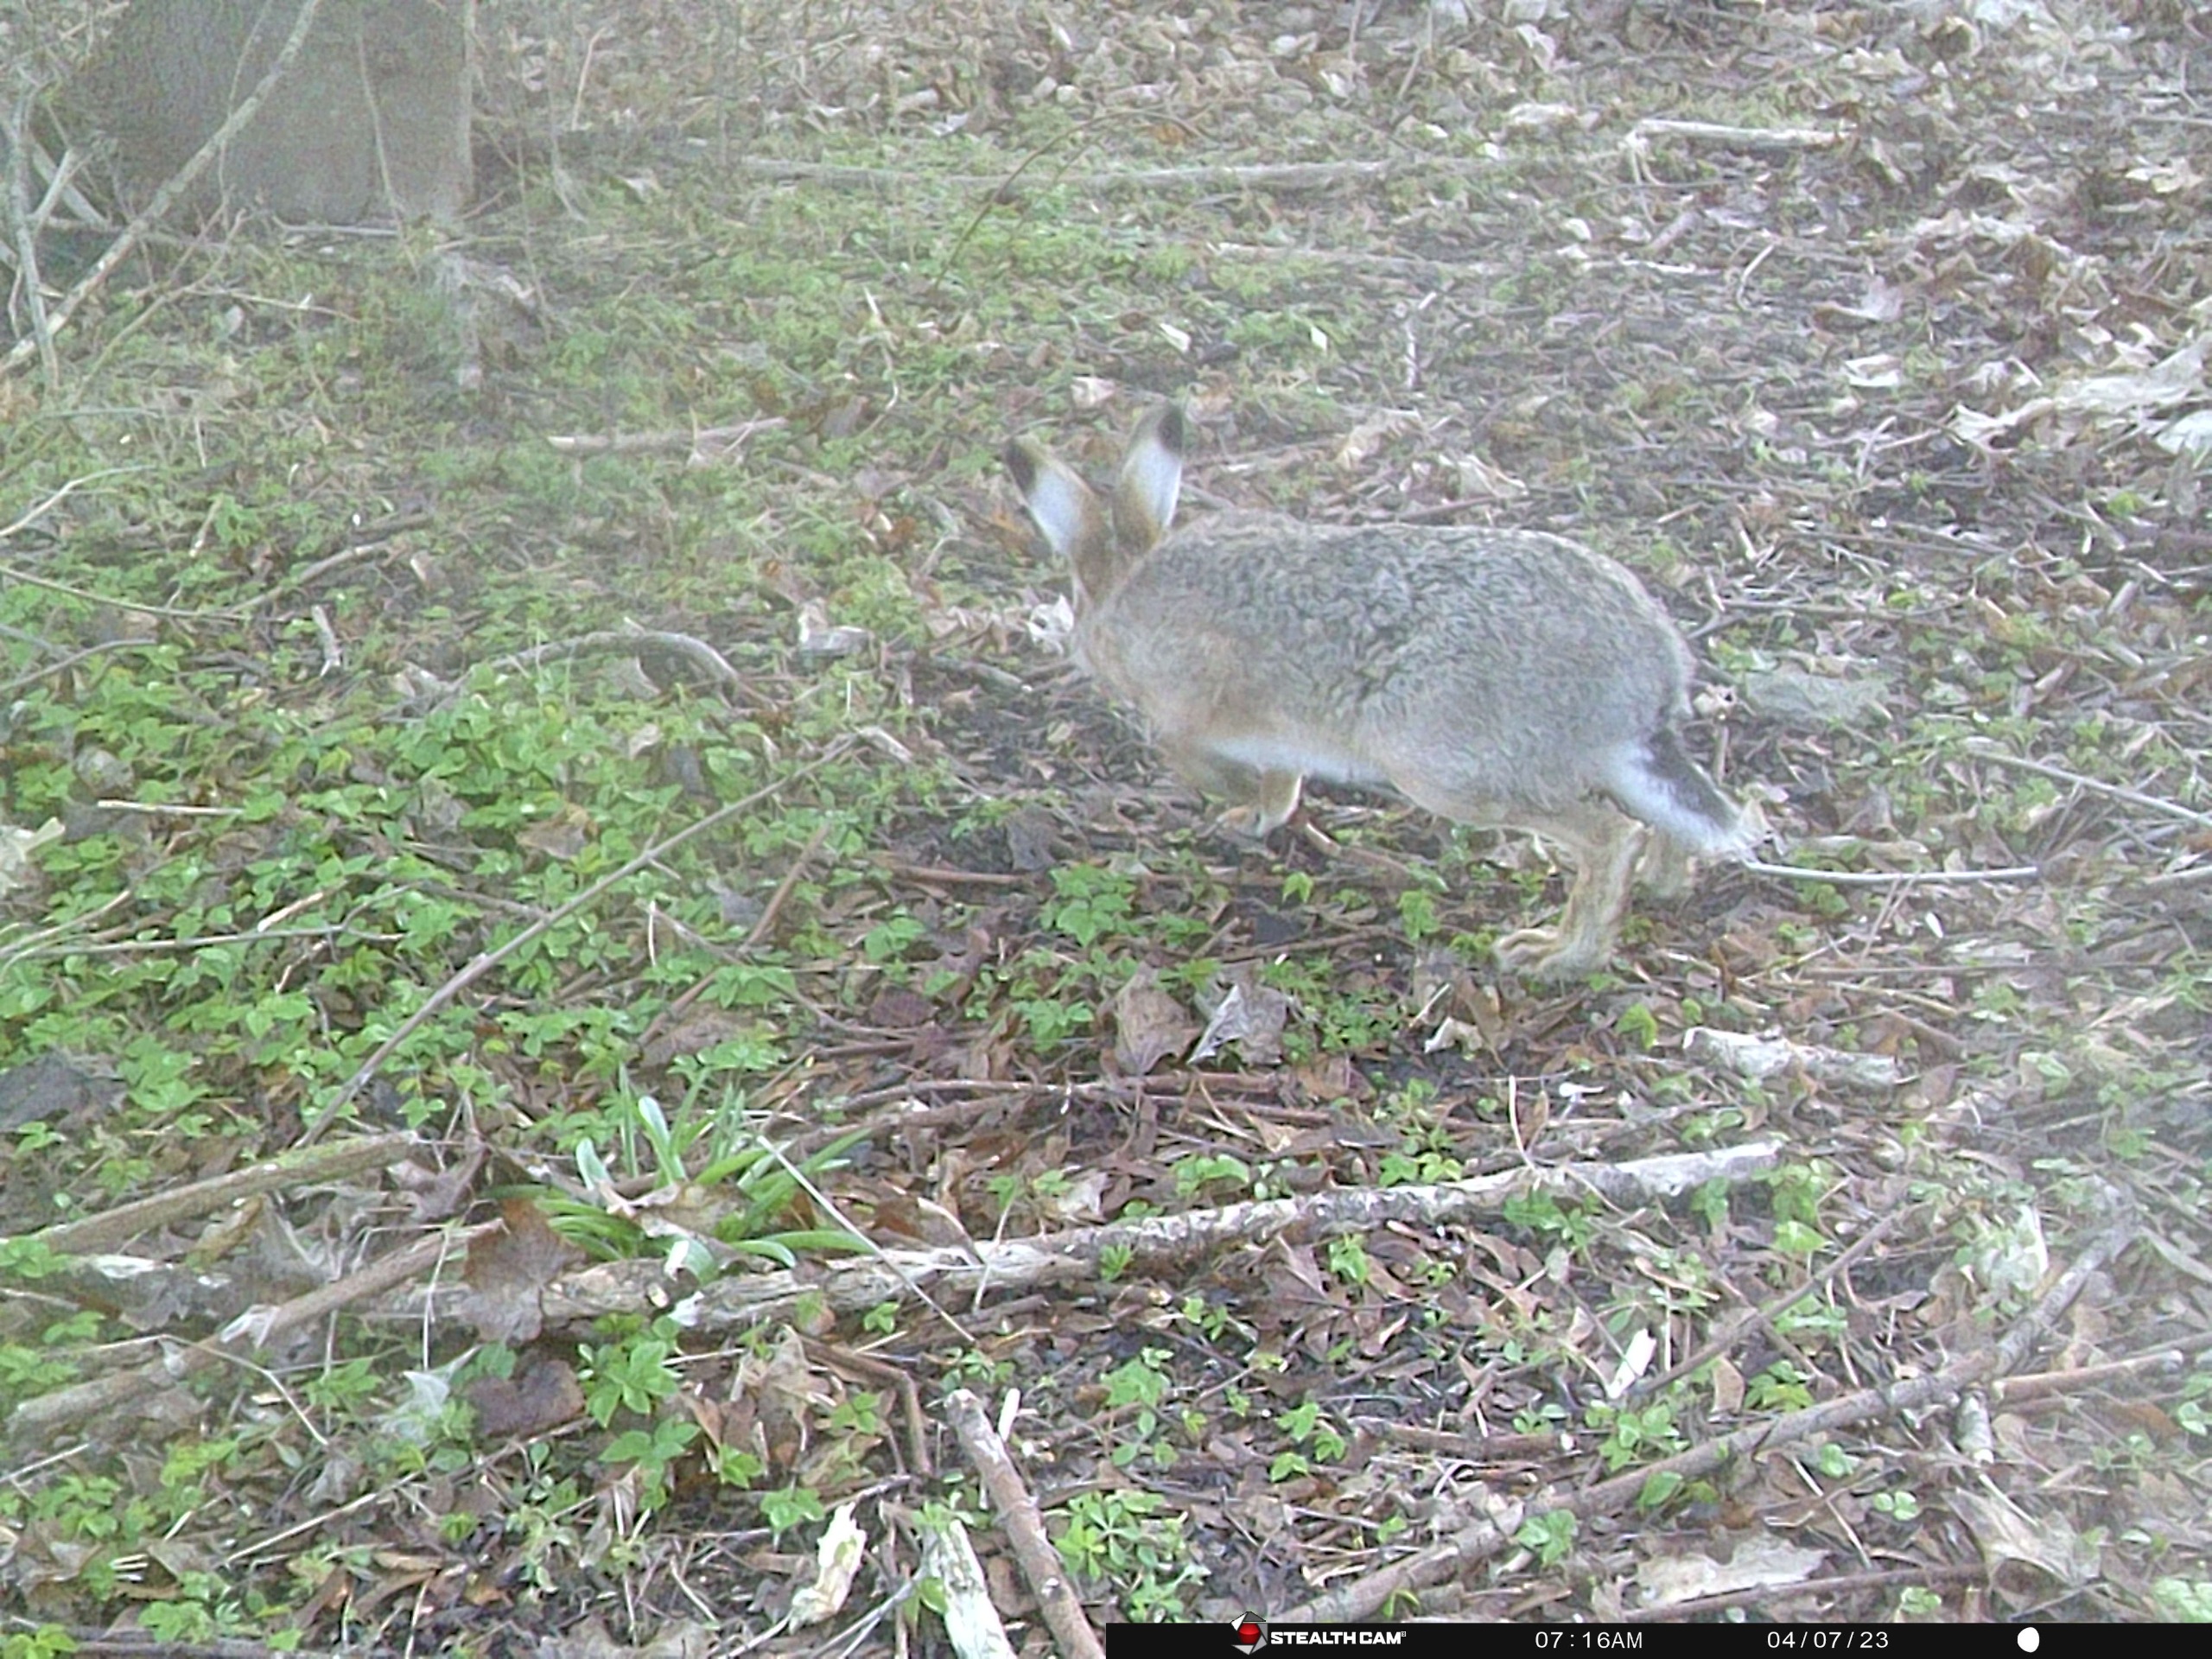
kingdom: Animalia
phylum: Chordata
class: Mammalia
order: Lagomorpha
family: Leporidae
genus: Lepus
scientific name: Lepus europaeus
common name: Hare
